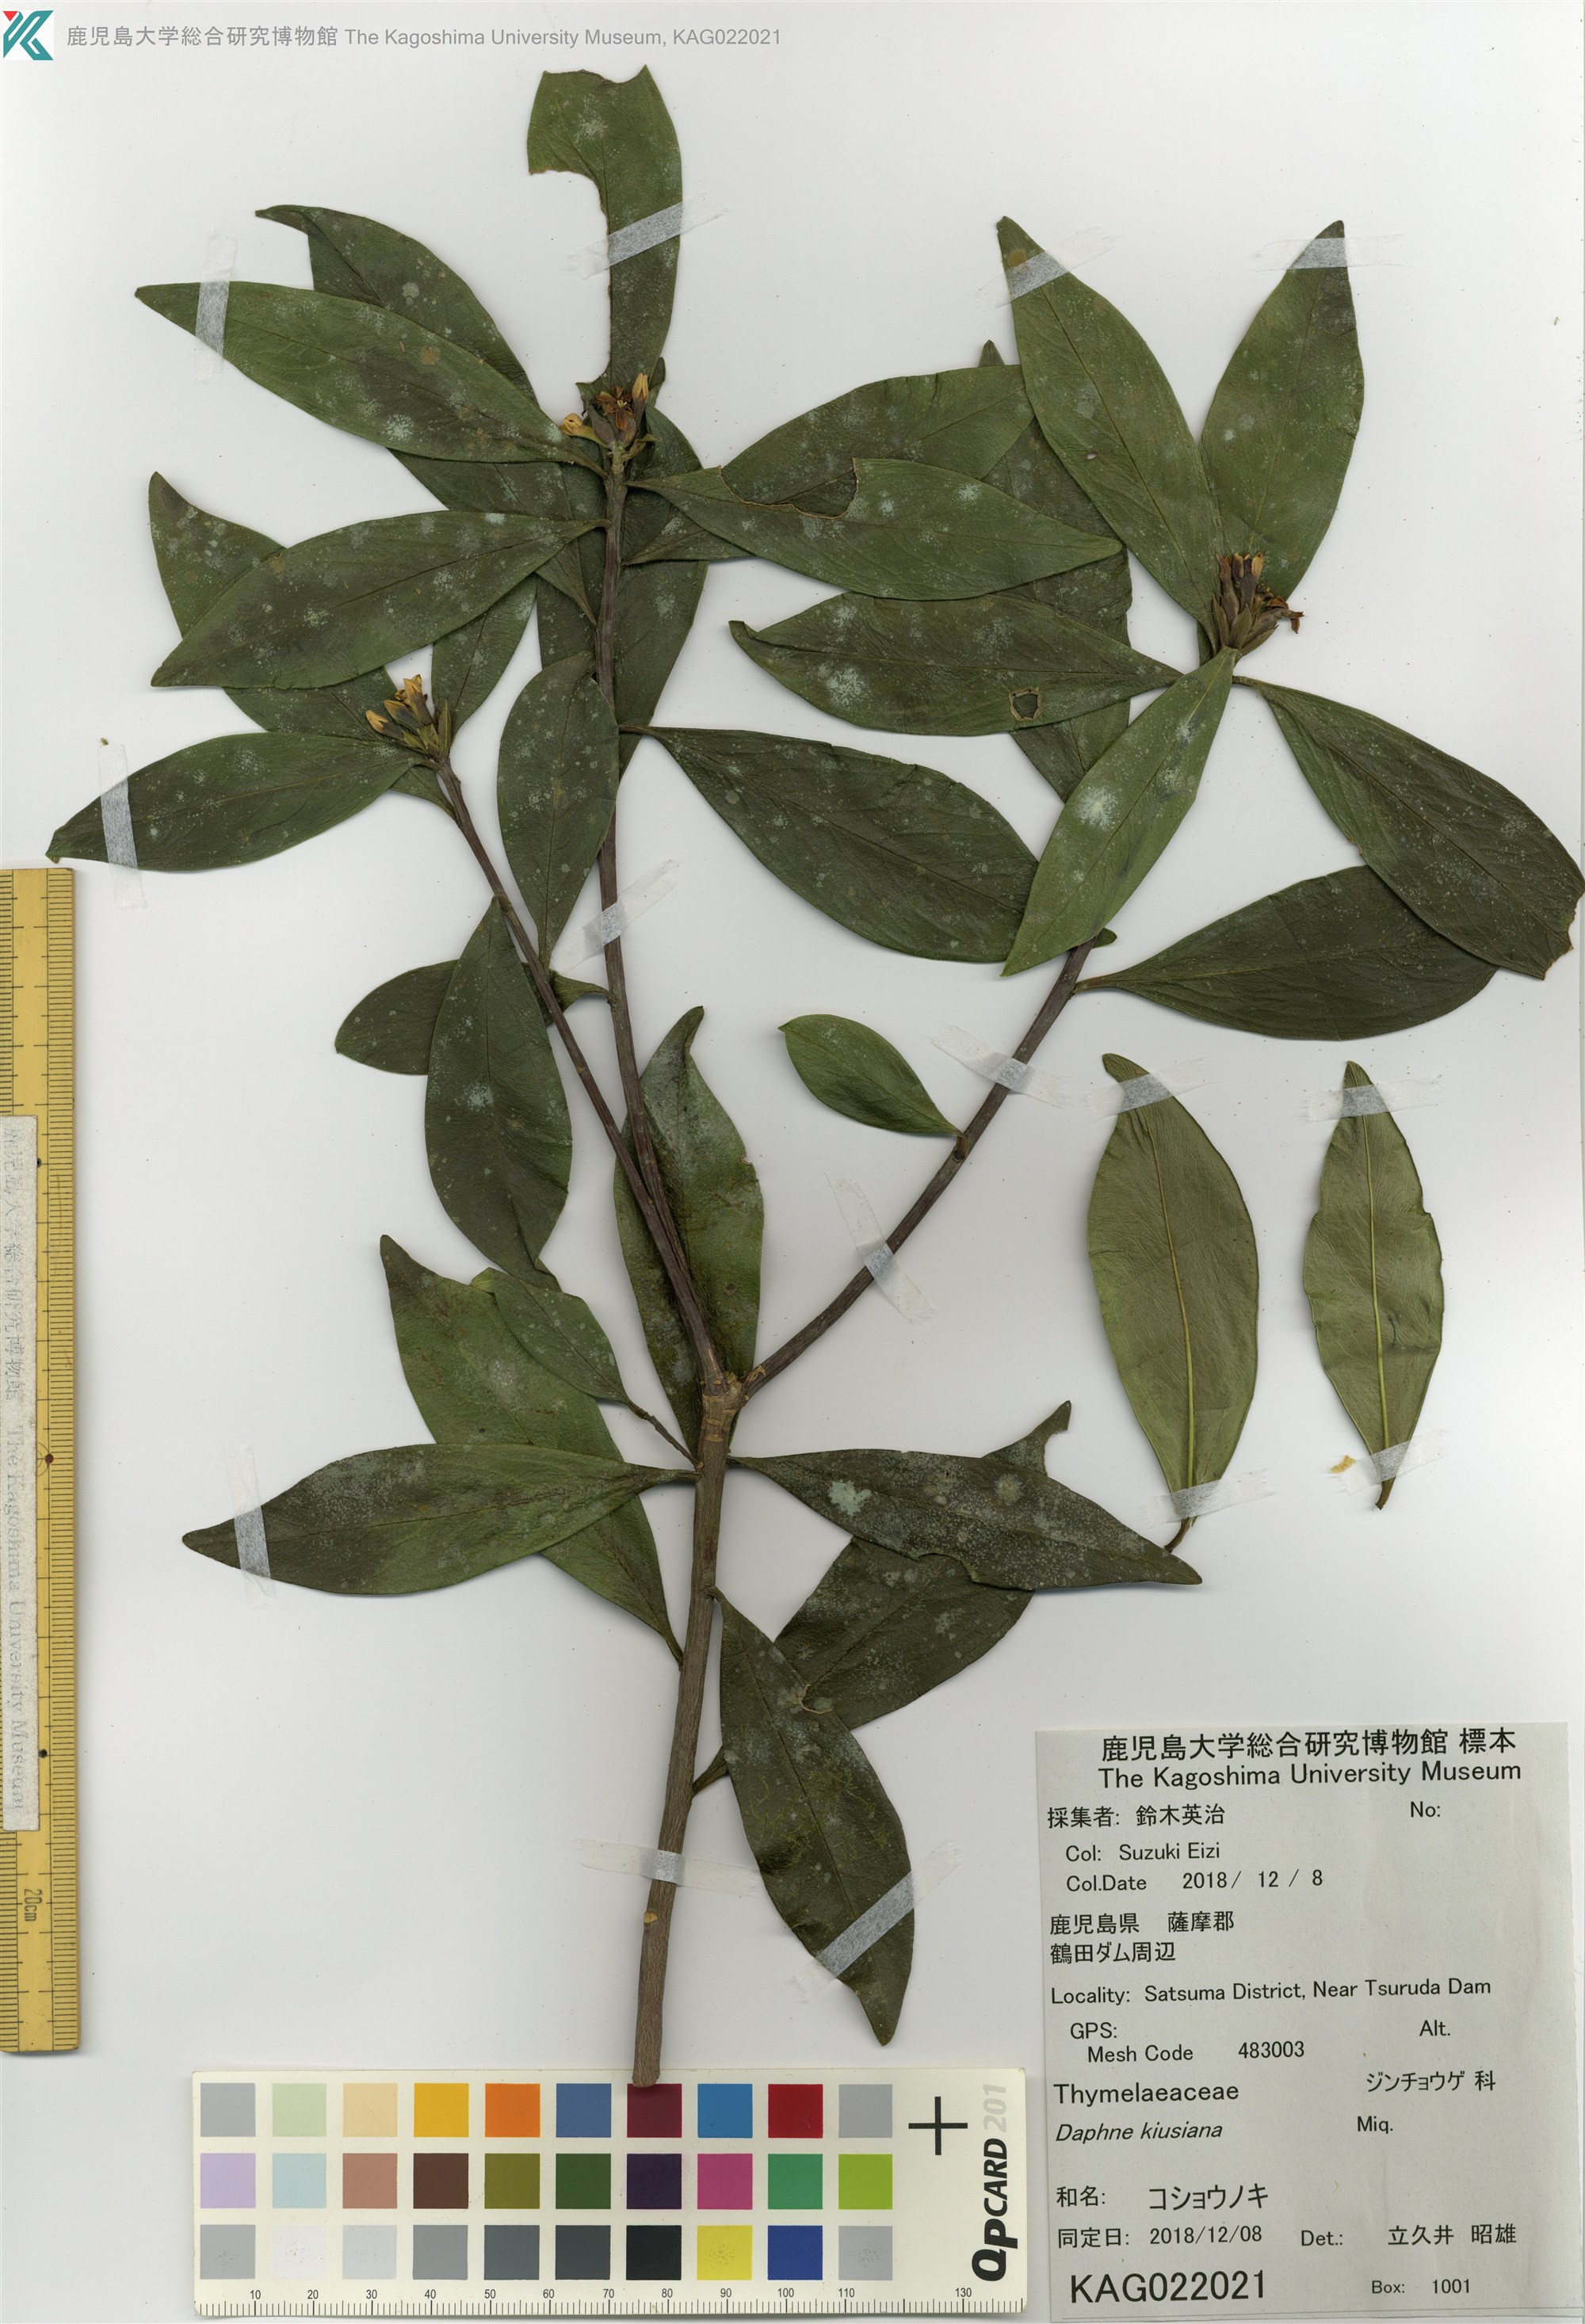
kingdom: Plantae
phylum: Tracheophyta
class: Magnoliopsida
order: Malvales
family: Thymelaeaceae
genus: Daphne
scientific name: Daphne kiusiana
